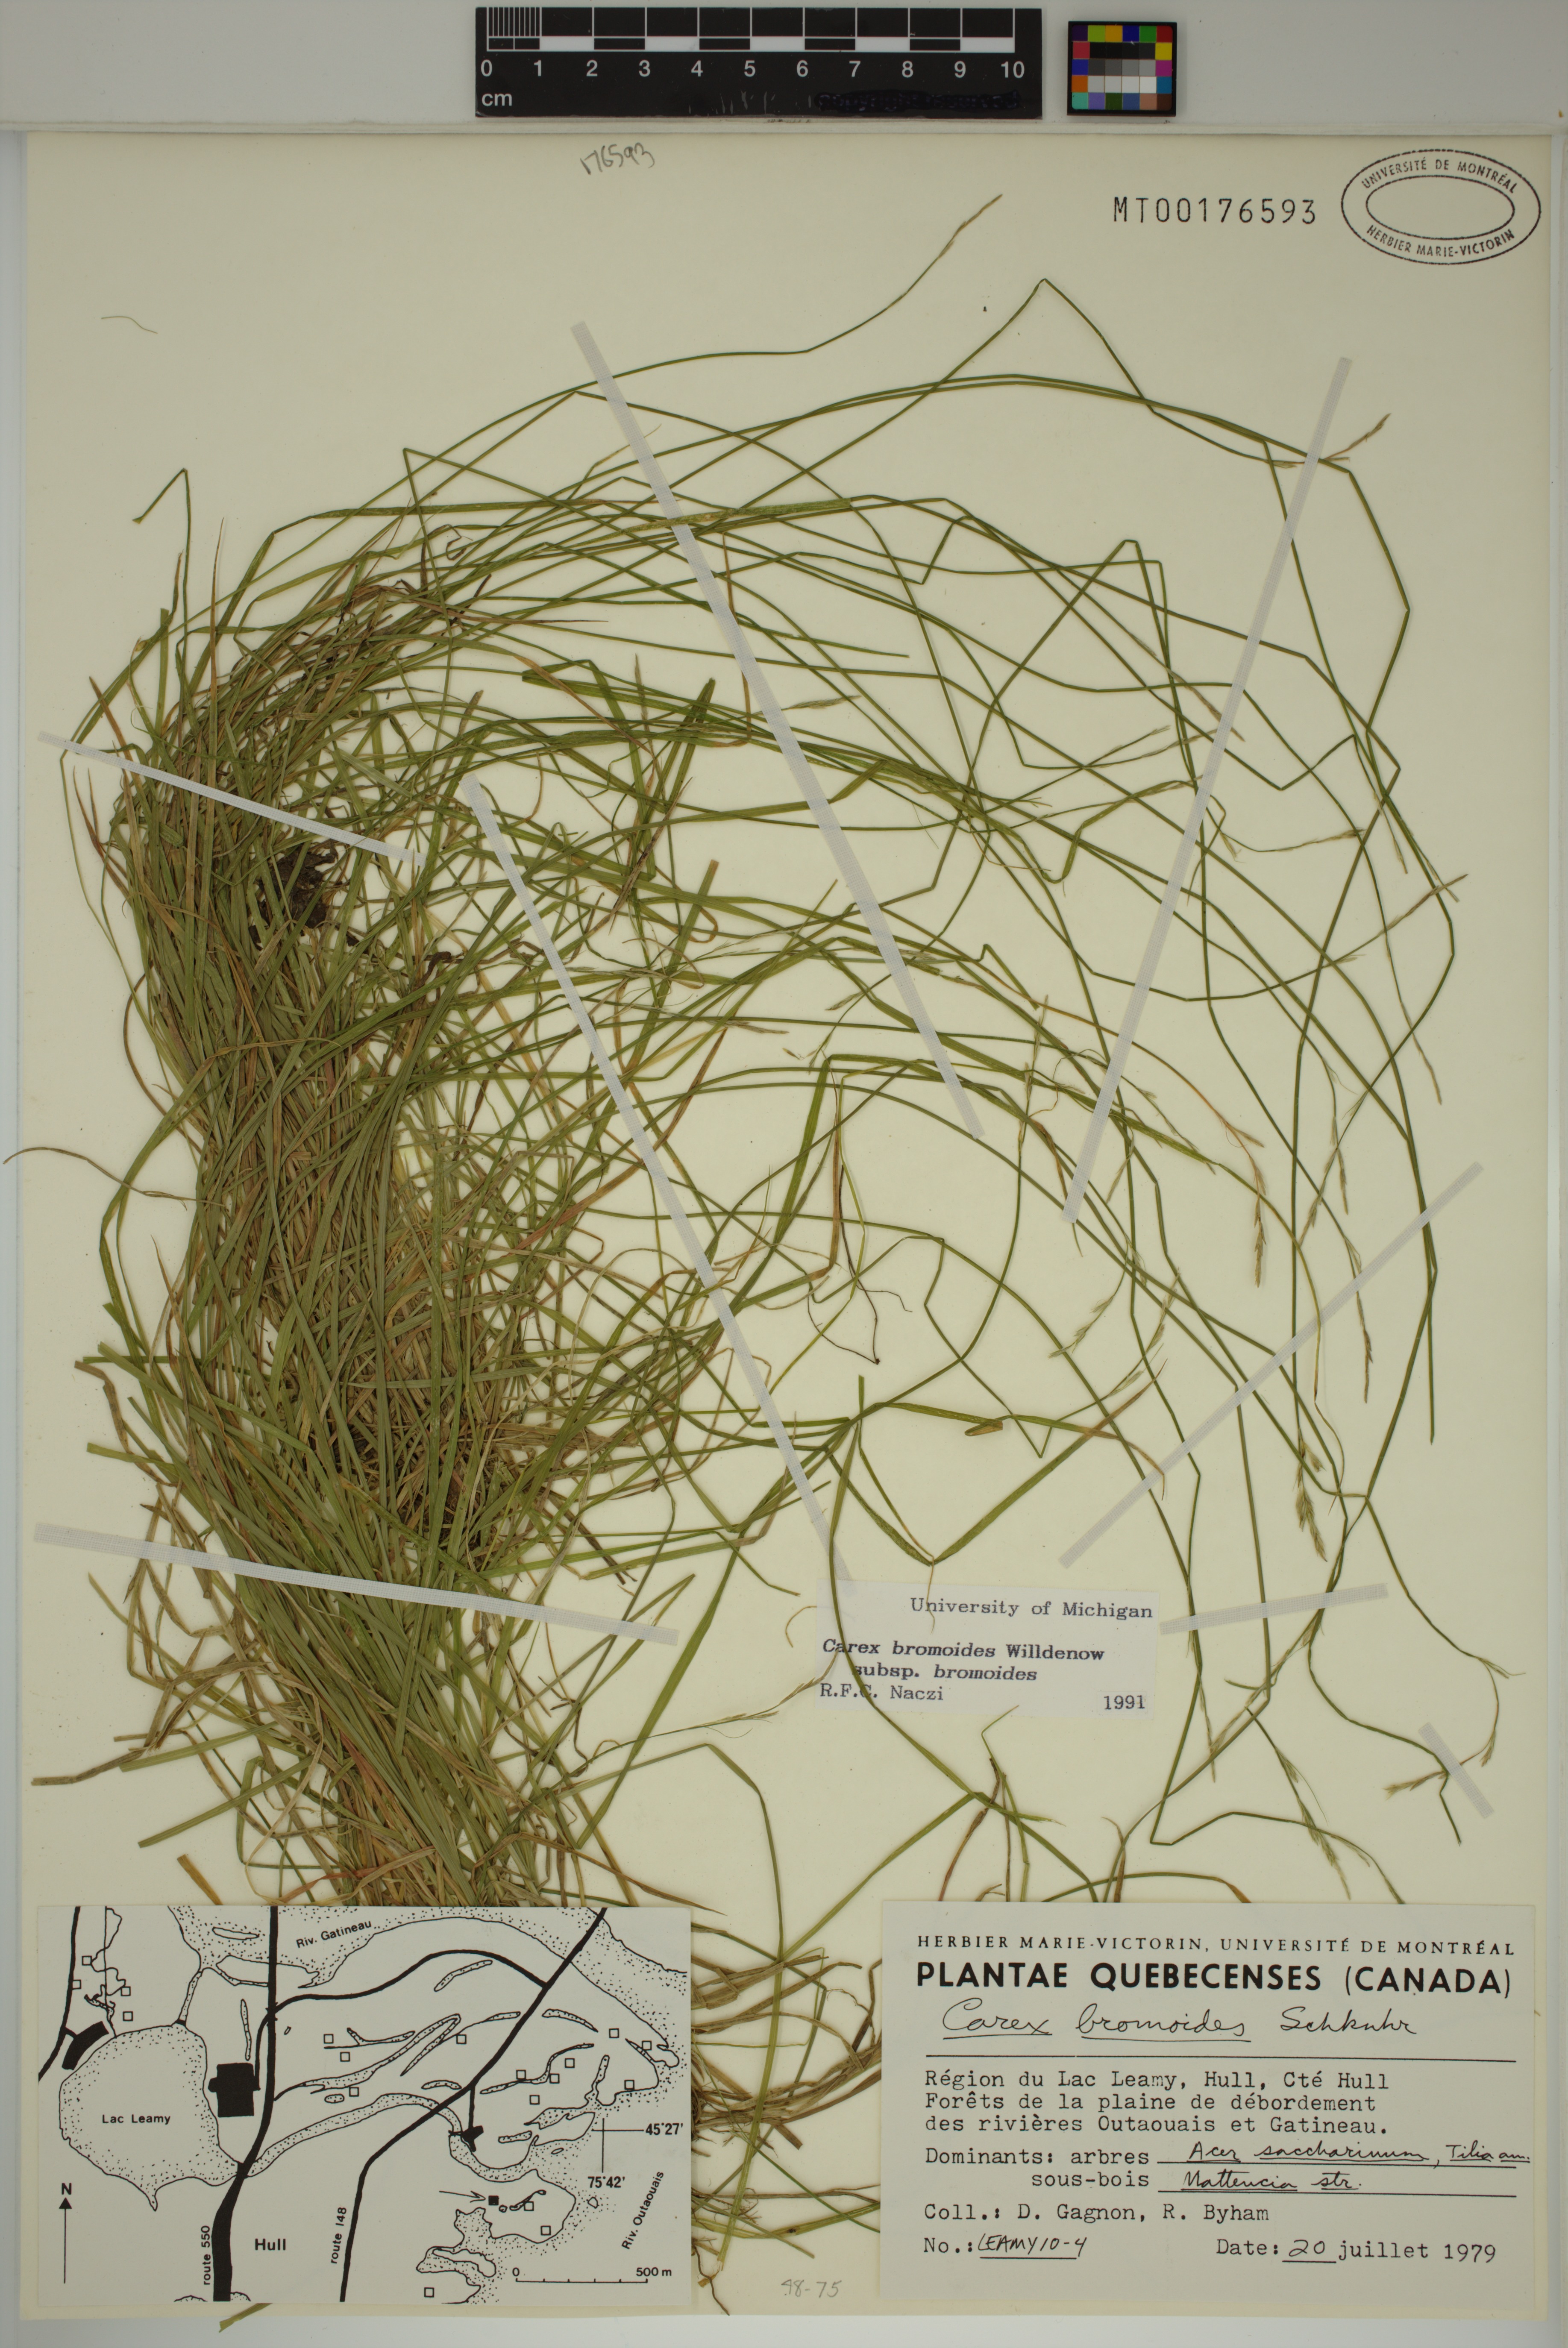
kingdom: Plantae
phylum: Tracheophyta
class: Liliopsida
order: Poales
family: Cyperaceae
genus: Carex
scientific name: Carex bromoides
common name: Brome hummock sedge
